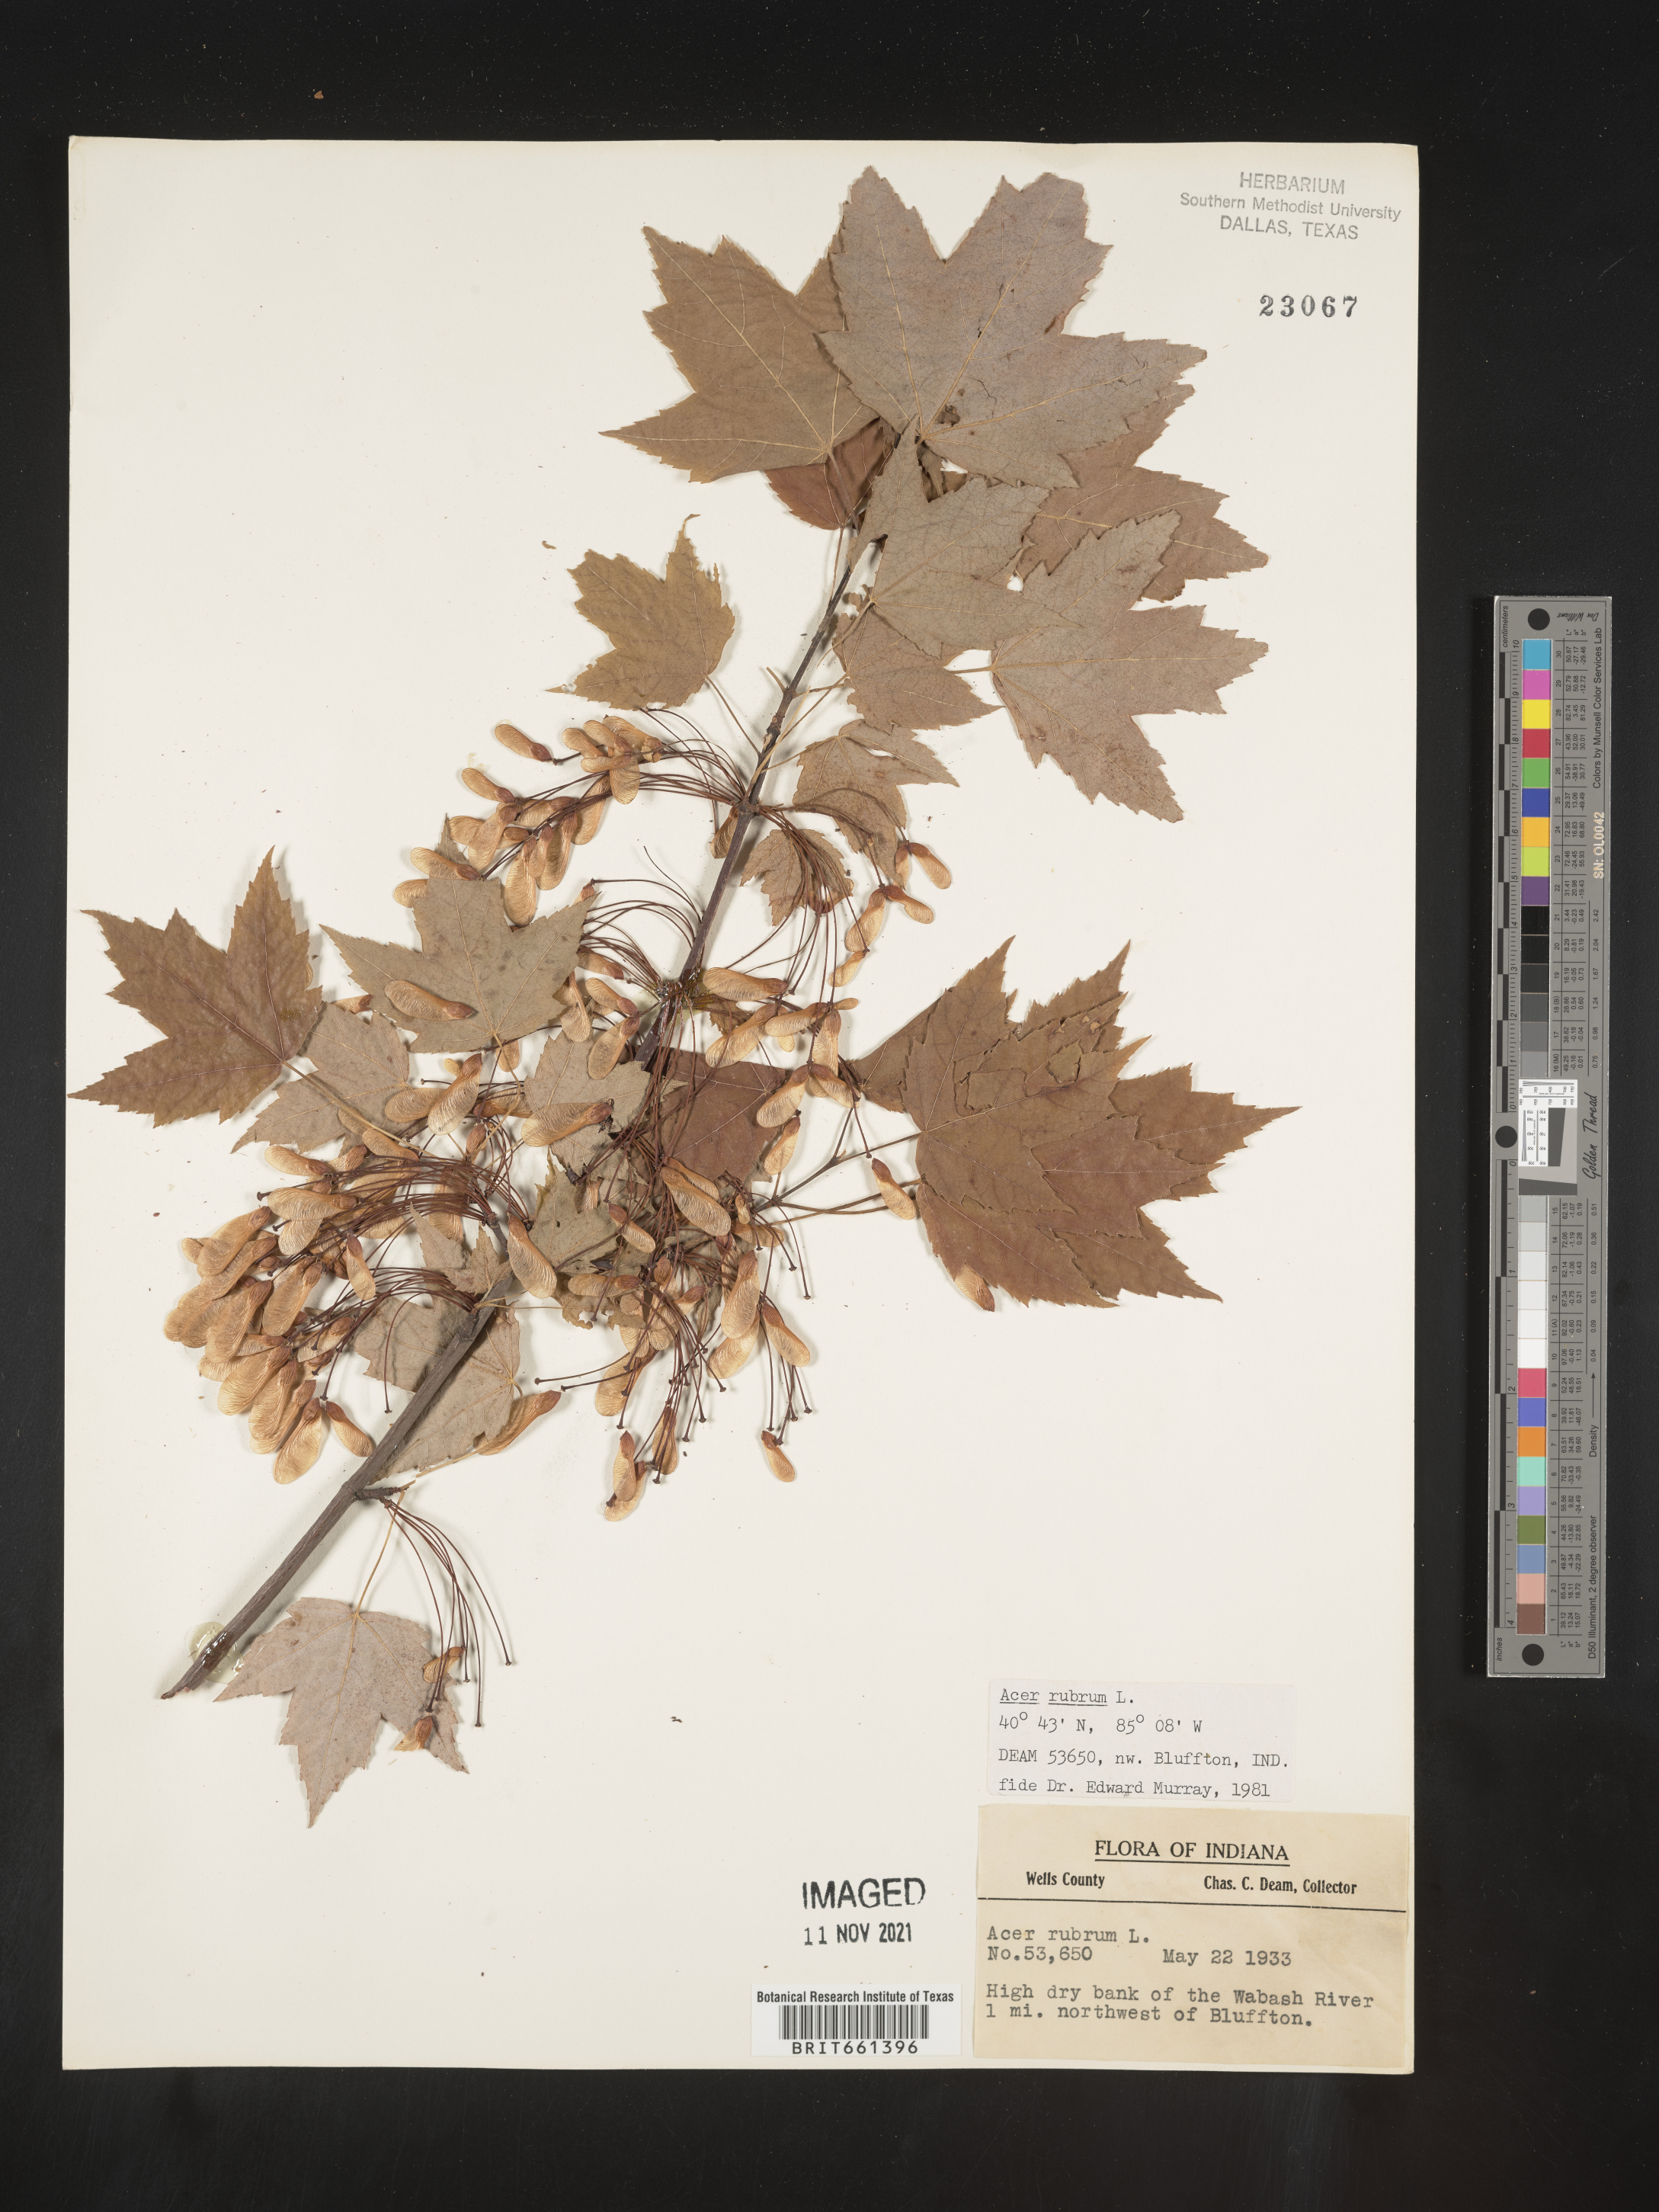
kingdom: Plantae
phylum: Tracheophyta
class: Magnoliopsida
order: Sapindales
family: Sapindaceae
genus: Acer
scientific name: Acer rubrum
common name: Red maple
